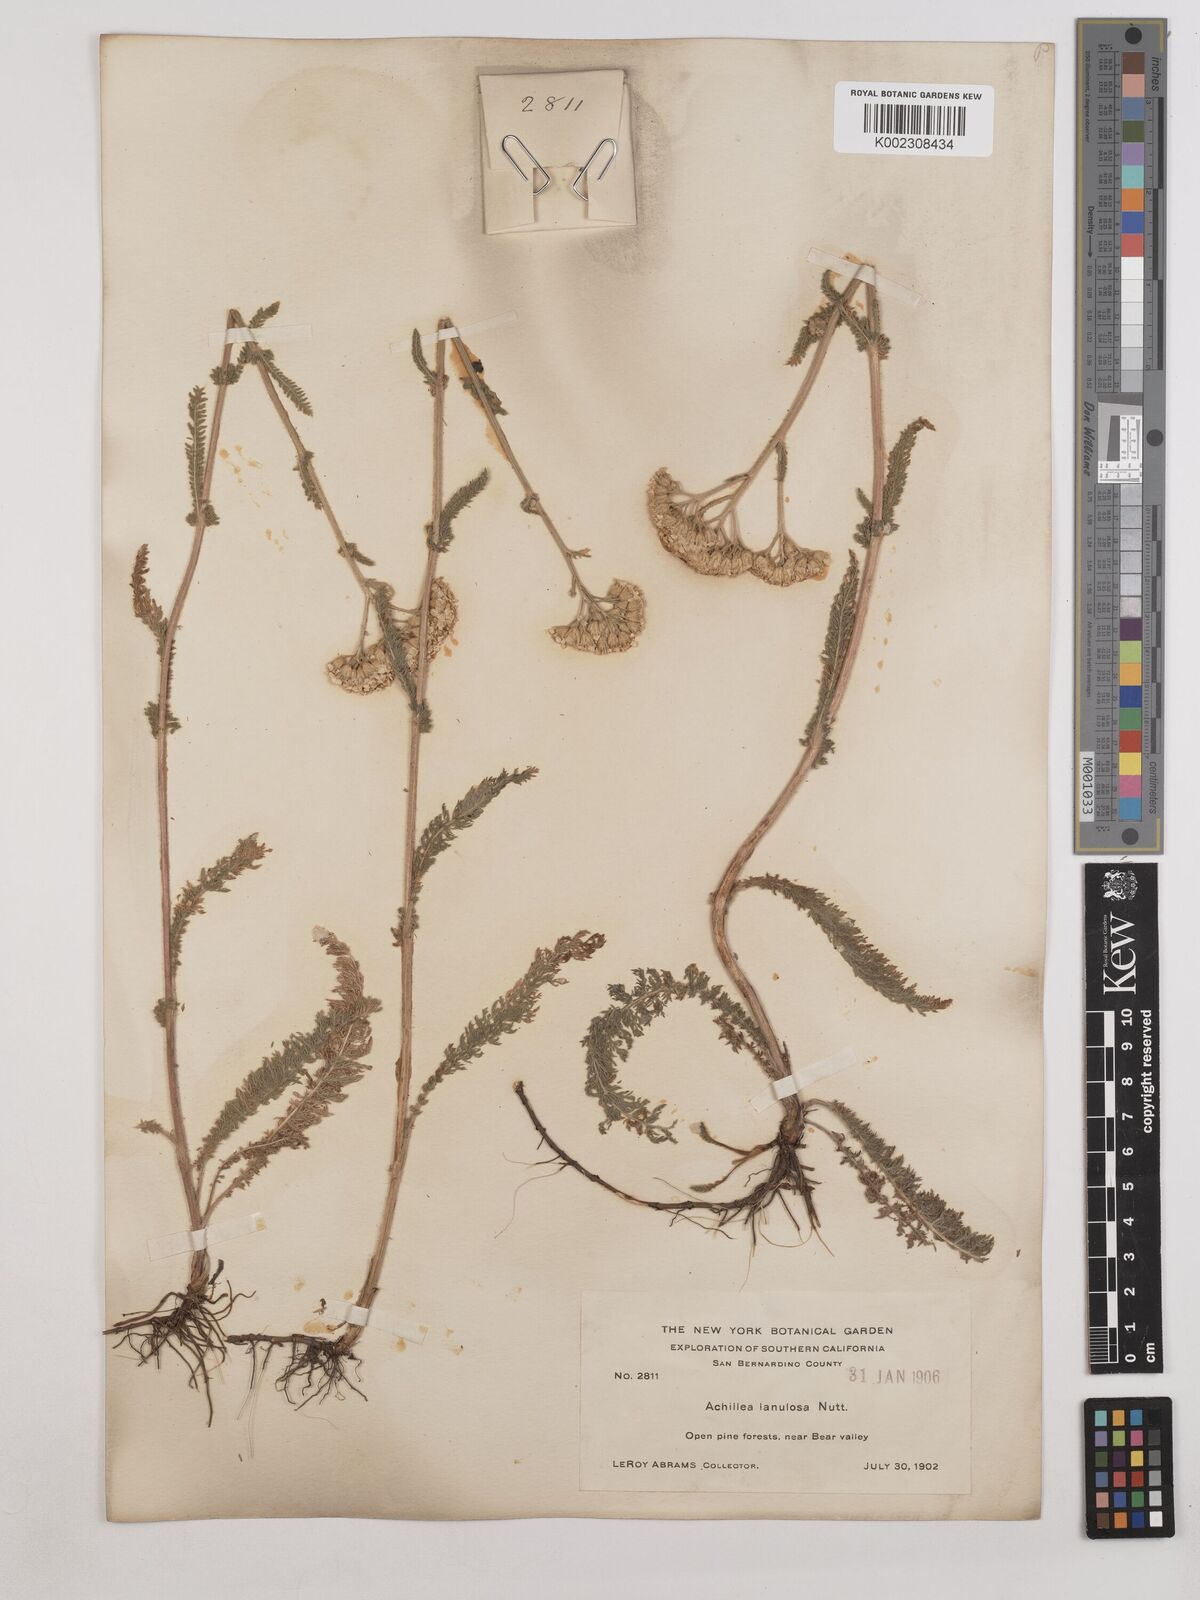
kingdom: Plantae
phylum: Tracheophyta
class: Magnoliopsida
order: Asterales
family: Asteraceae
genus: Achillea
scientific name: Achillea millefolium
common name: Yarrow
